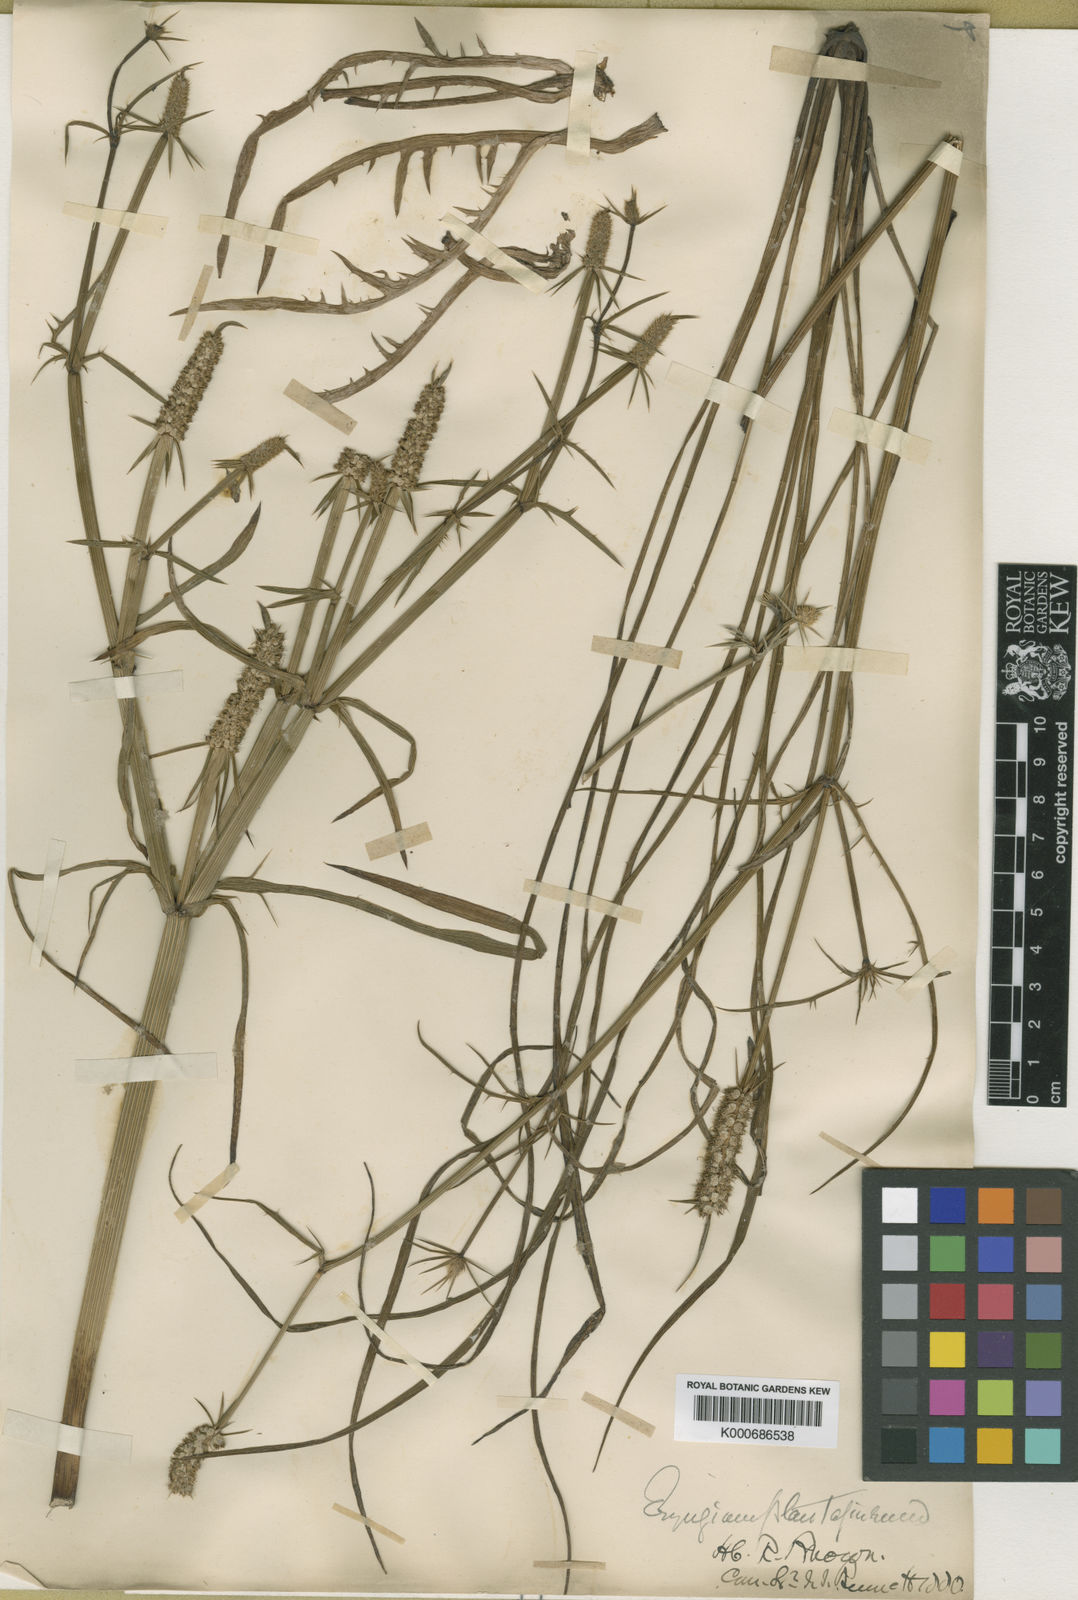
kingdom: Plantae
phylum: Tracheophyta
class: Magnoliopsida
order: Apiales
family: Apiaceae
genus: Eryngium
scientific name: Eryngium plantagineum
